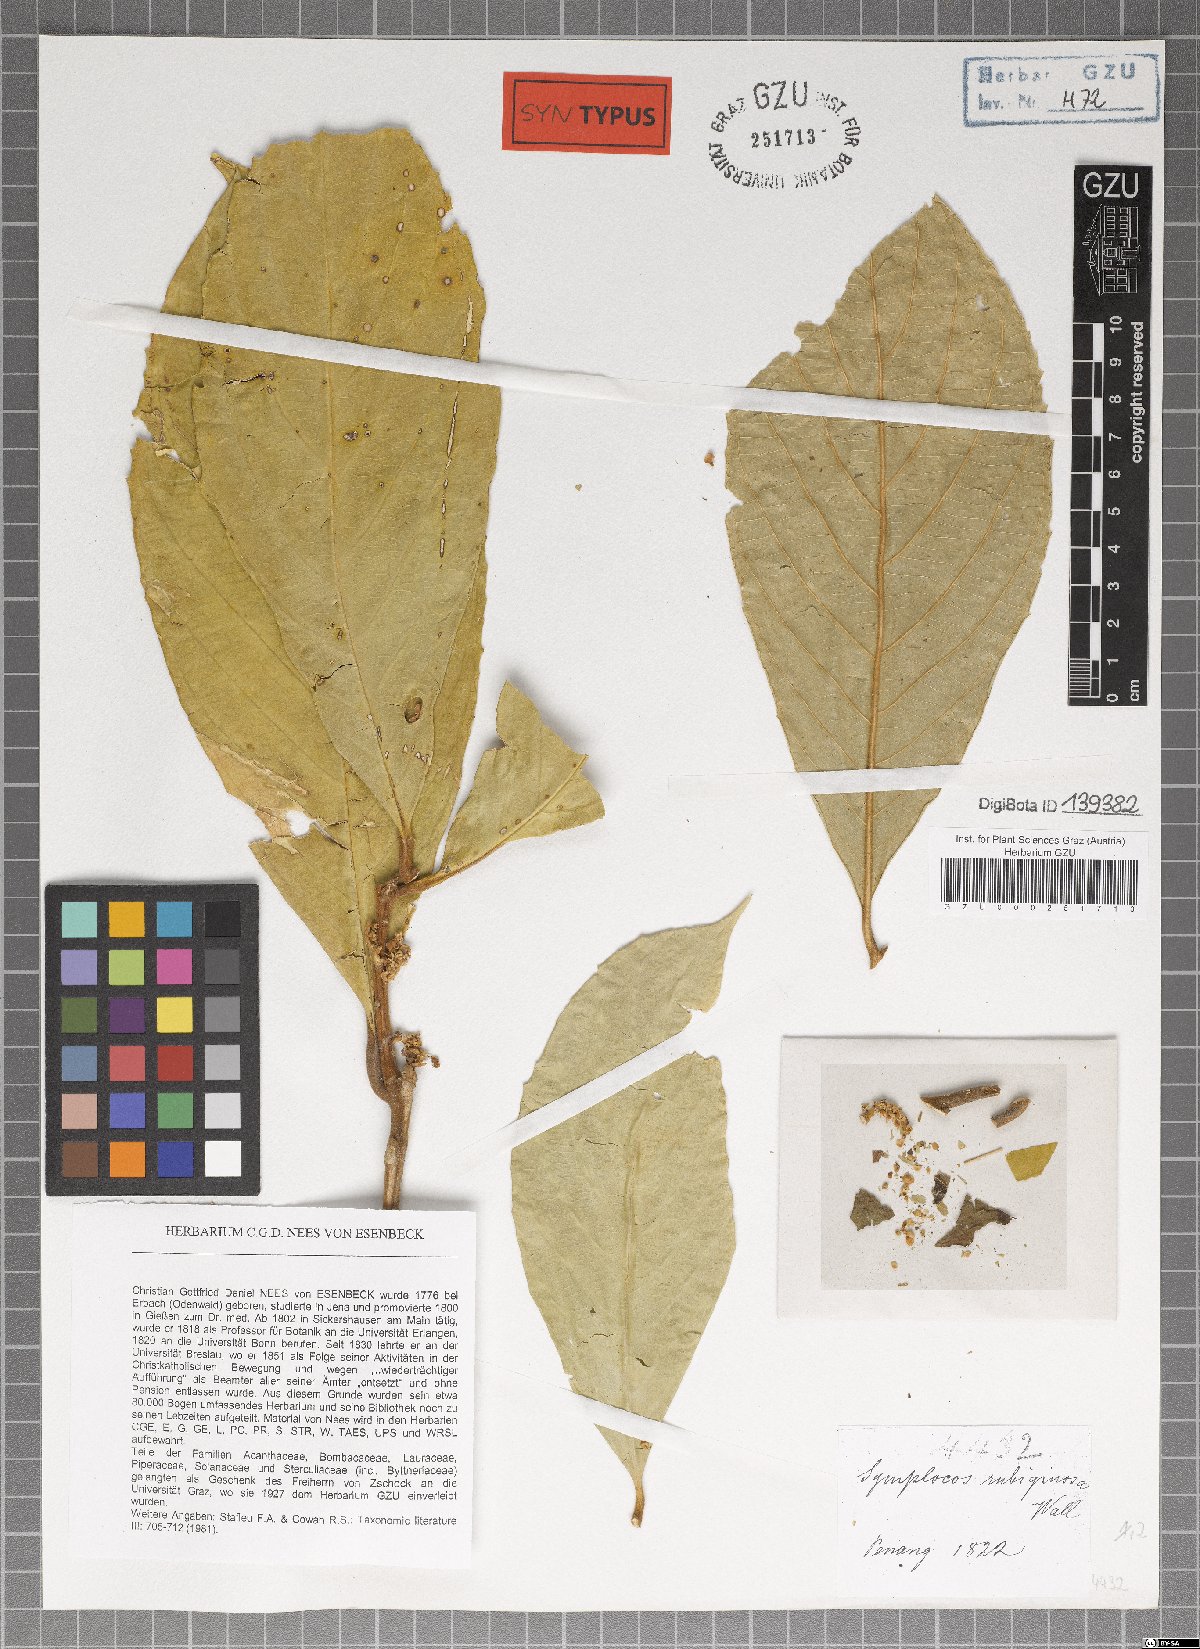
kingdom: Plantae
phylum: Tracheophyta
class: Magnoliopsida
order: Ericales
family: Symplocaceae
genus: Symplocos
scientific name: Symplocos rubiginosa
